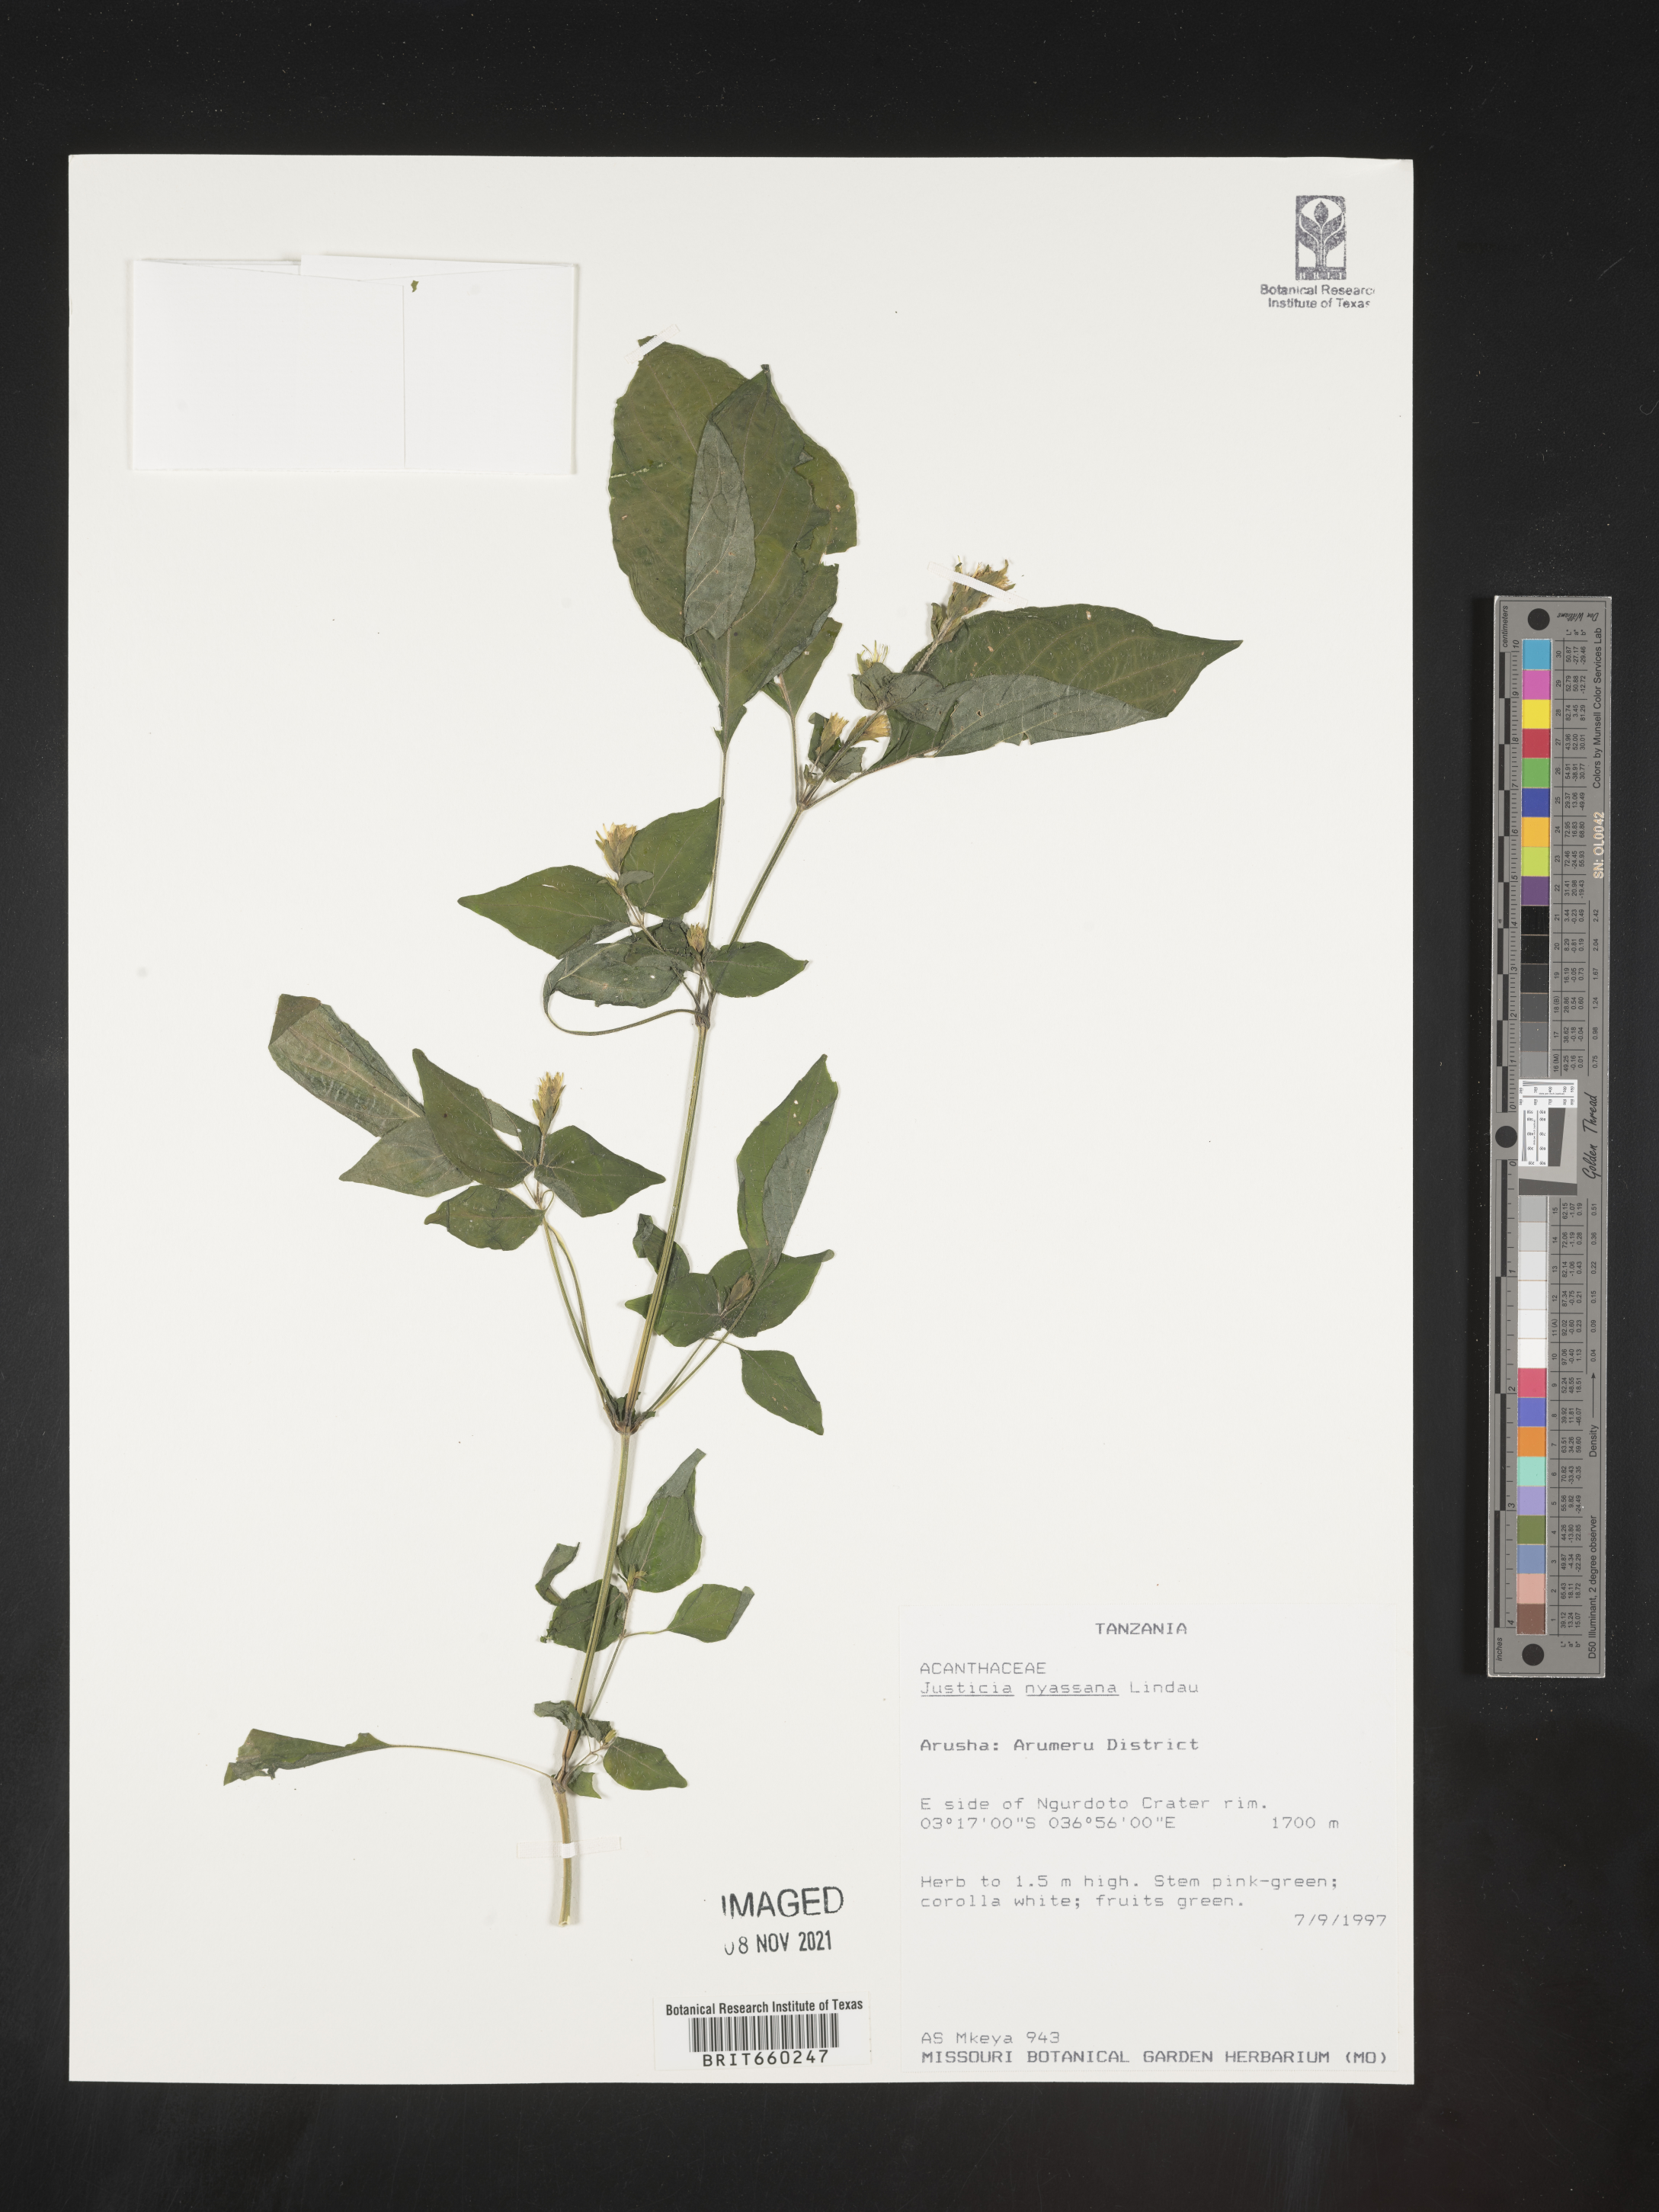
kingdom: Plantae
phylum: Tracheophyta
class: Magnoliopsida
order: Lamiales
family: Acanthaceae
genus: Justicia
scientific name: Justicia nyassana
